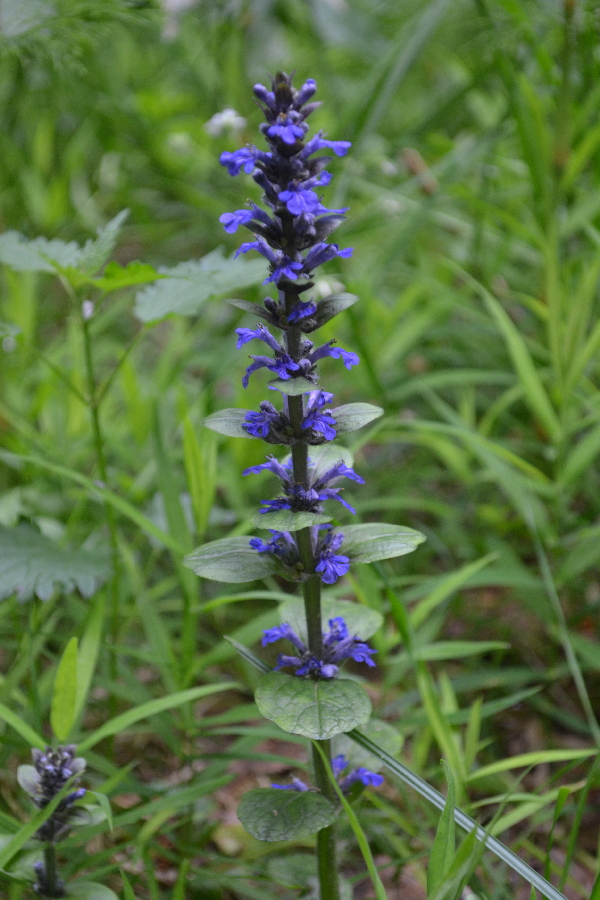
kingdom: Plantae
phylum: Tracheophyta
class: Magnoliopsida
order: Lamiales
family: Lamiaceae
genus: Ajuga
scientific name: Ajuga reptans
